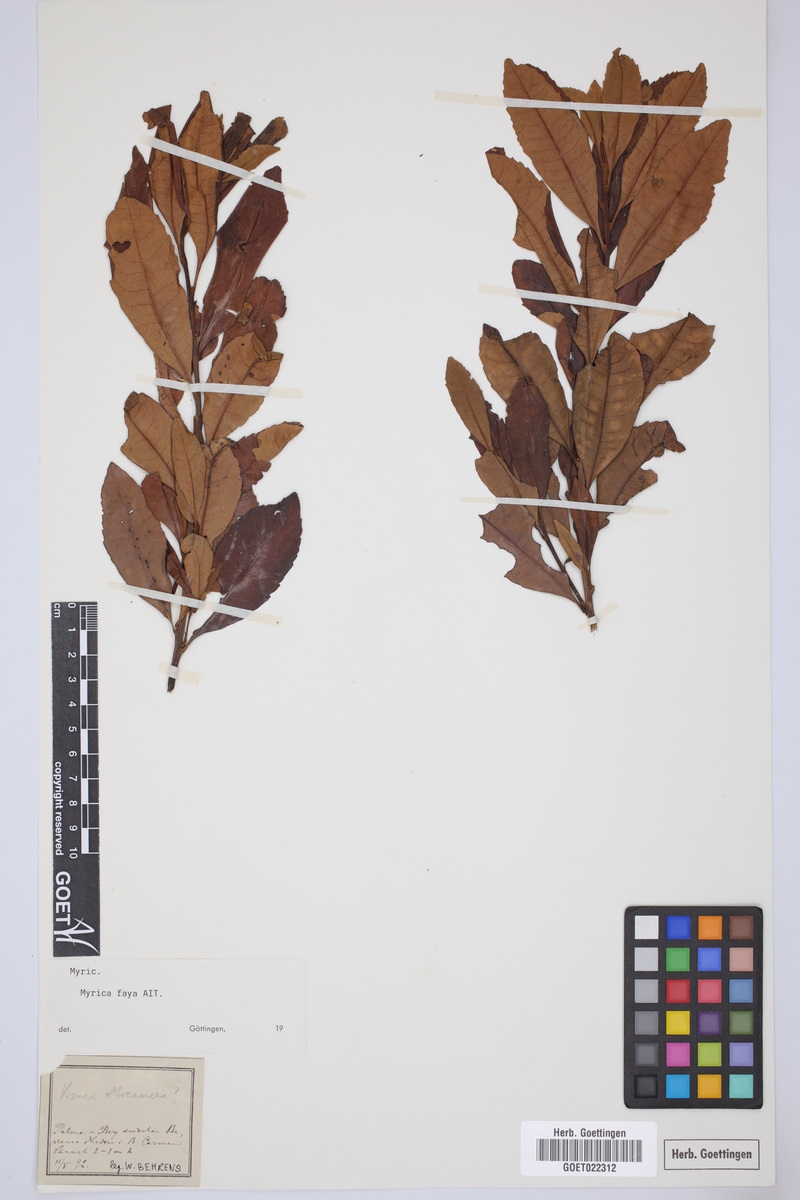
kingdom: Plantae
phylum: Tracheophyta
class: Magnoliopsida
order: Fagales
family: Myricaceae
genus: Morella
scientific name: Morella faya
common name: Firetree
